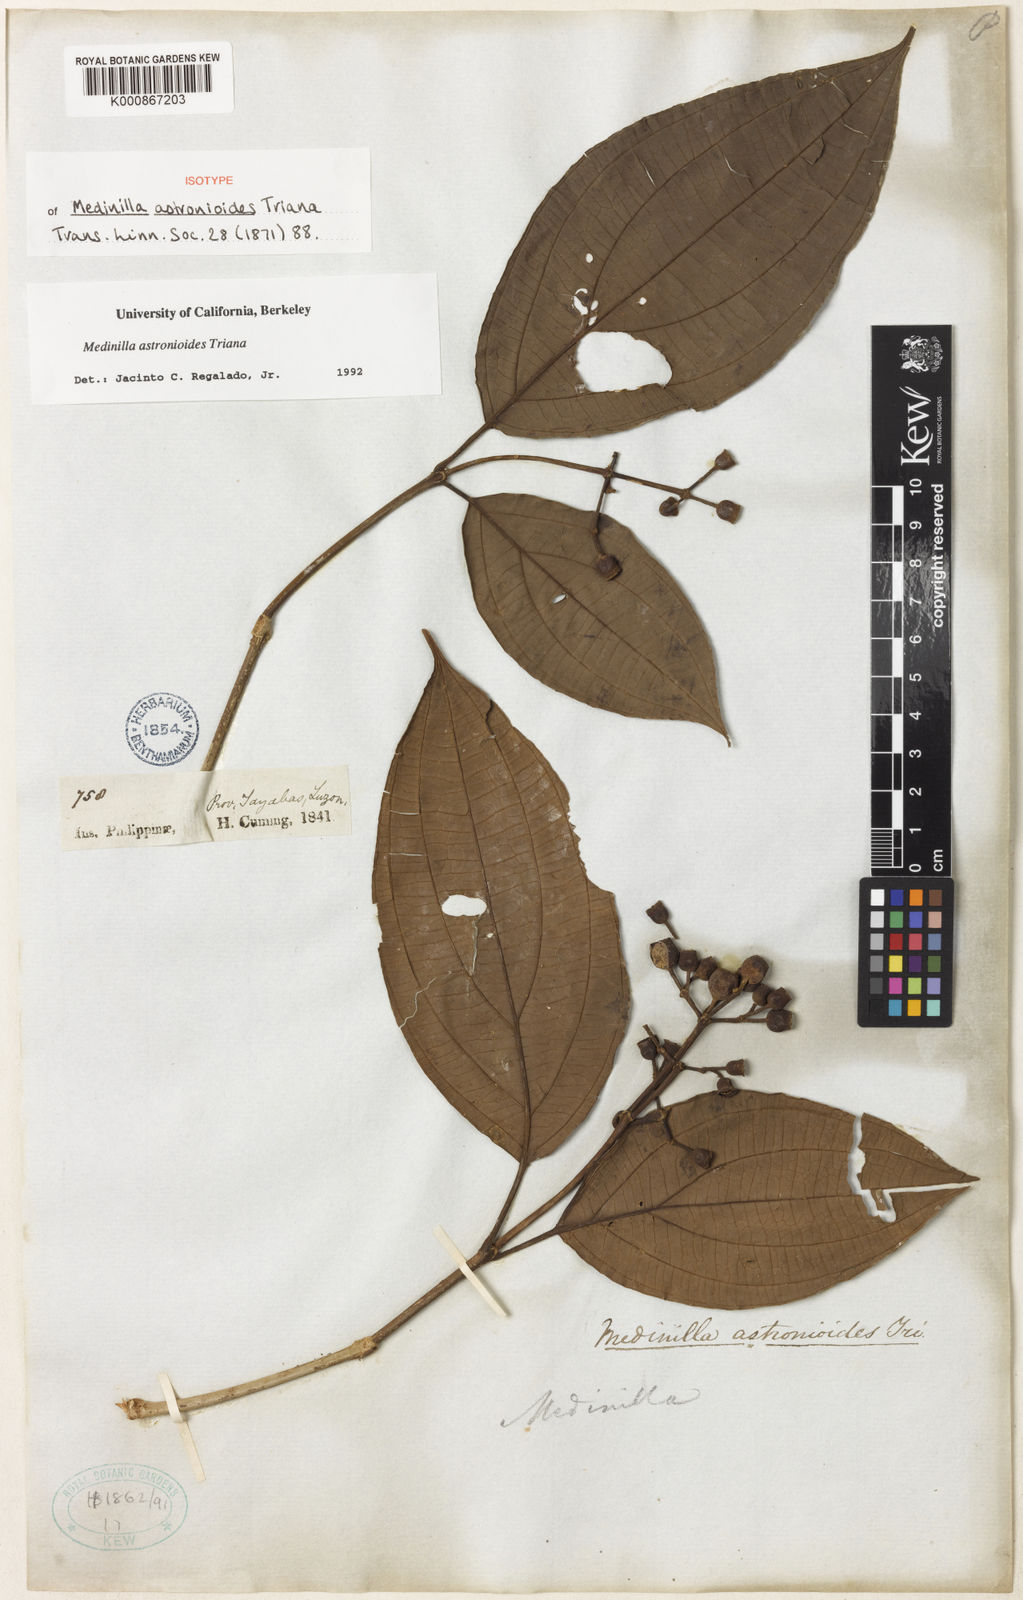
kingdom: Plantae
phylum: Tracheophyta
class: Magnoliopsida
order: Myrtales
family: Melastomataceae
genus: Medinilla
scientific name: Medinilla astronioides
